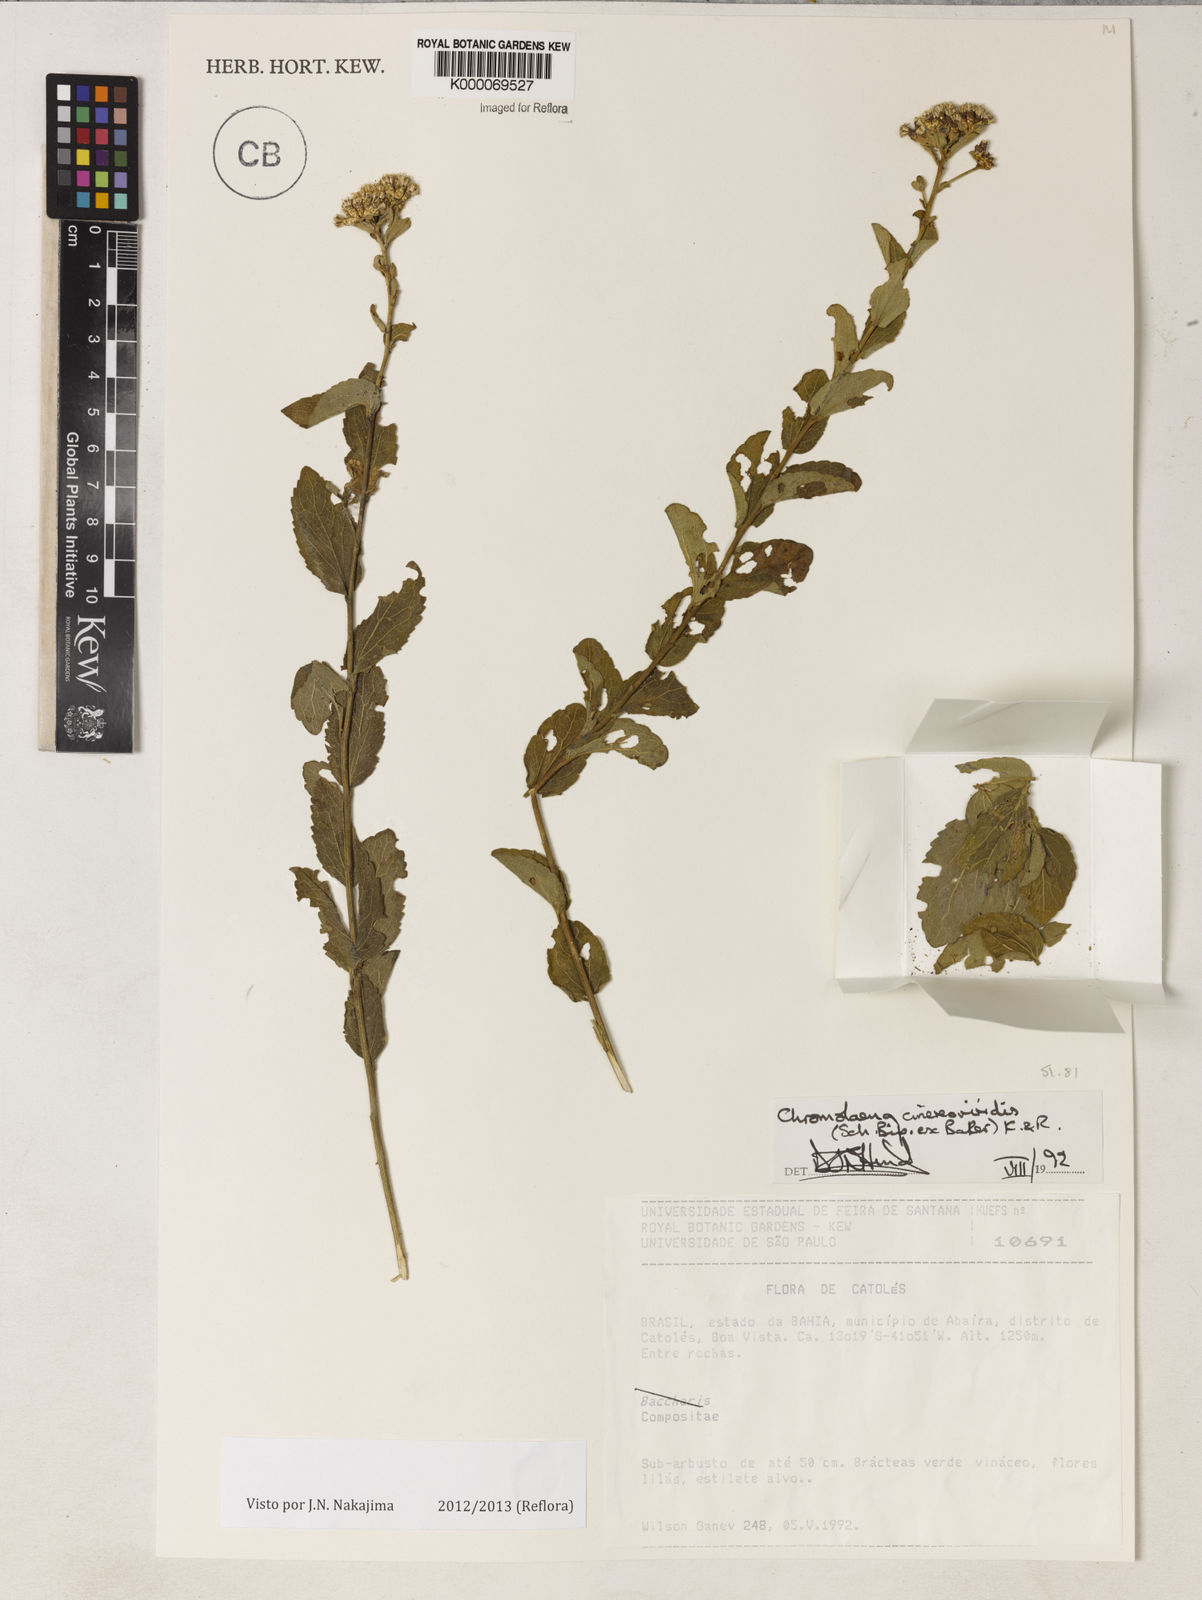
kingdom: Plantae
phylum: Tracheophyta
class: Magnoliopsida
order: Asterales
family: Asteraceae
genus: Chromolaena
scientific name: Chromolaena cinereoviridis
